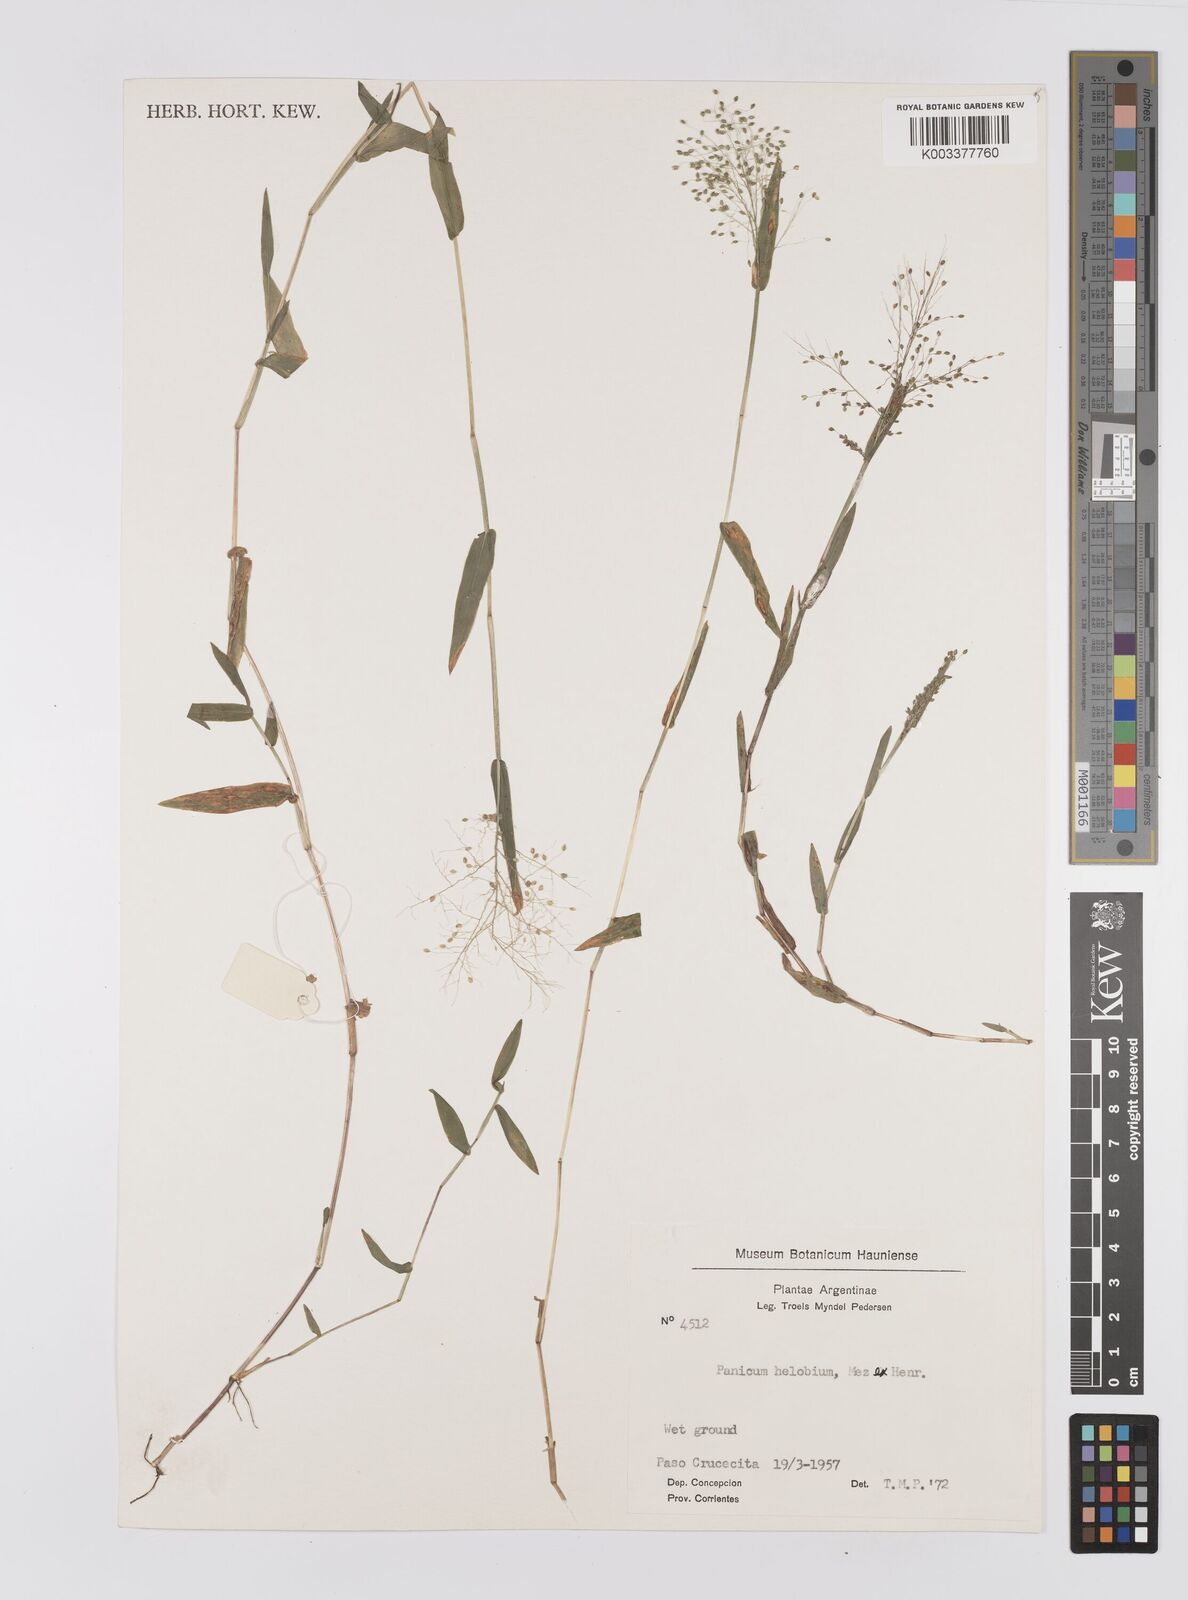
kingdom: Plantae
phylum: Tracheophyta
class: Liliopsida
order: Poales
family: Poaceae
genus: Trichanthecium
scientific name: Trichanthecium schwackeanum
